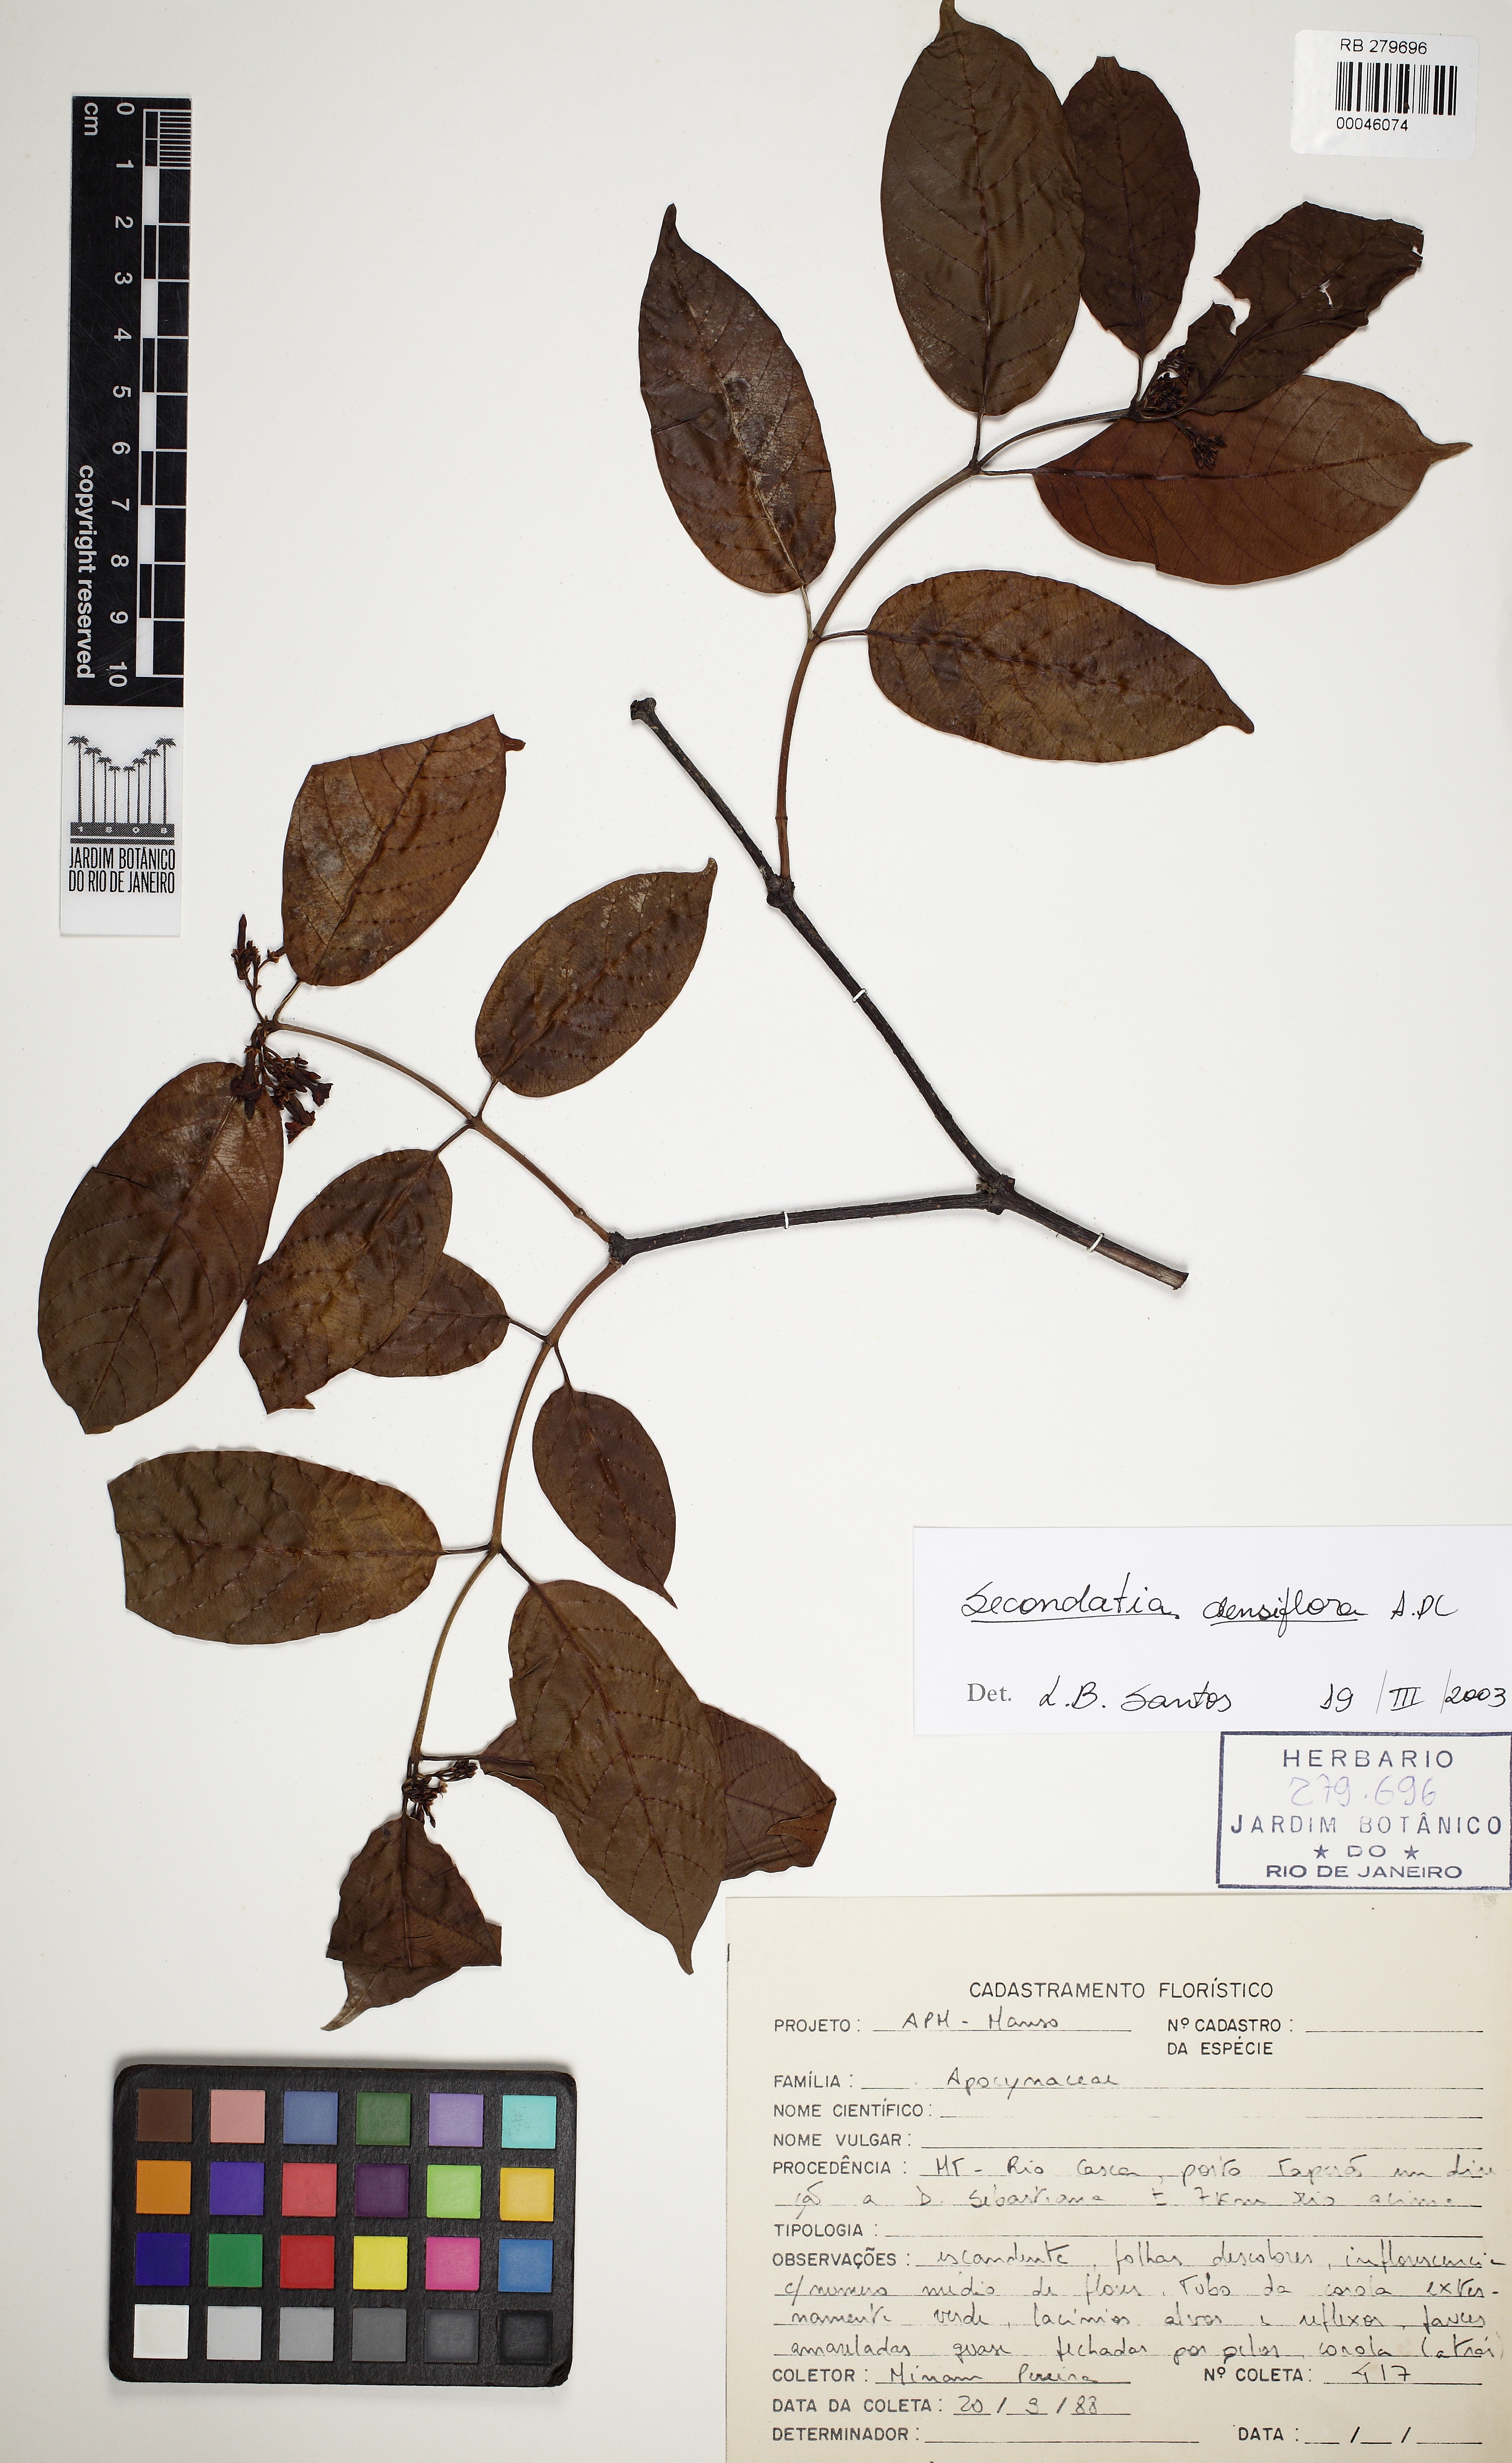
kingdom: Plantae
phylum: Tracheophyta
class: Magnoliopsida
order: Gentianales
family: Apocynaceae
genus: Secondatia
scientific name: Secondatia densiflora
